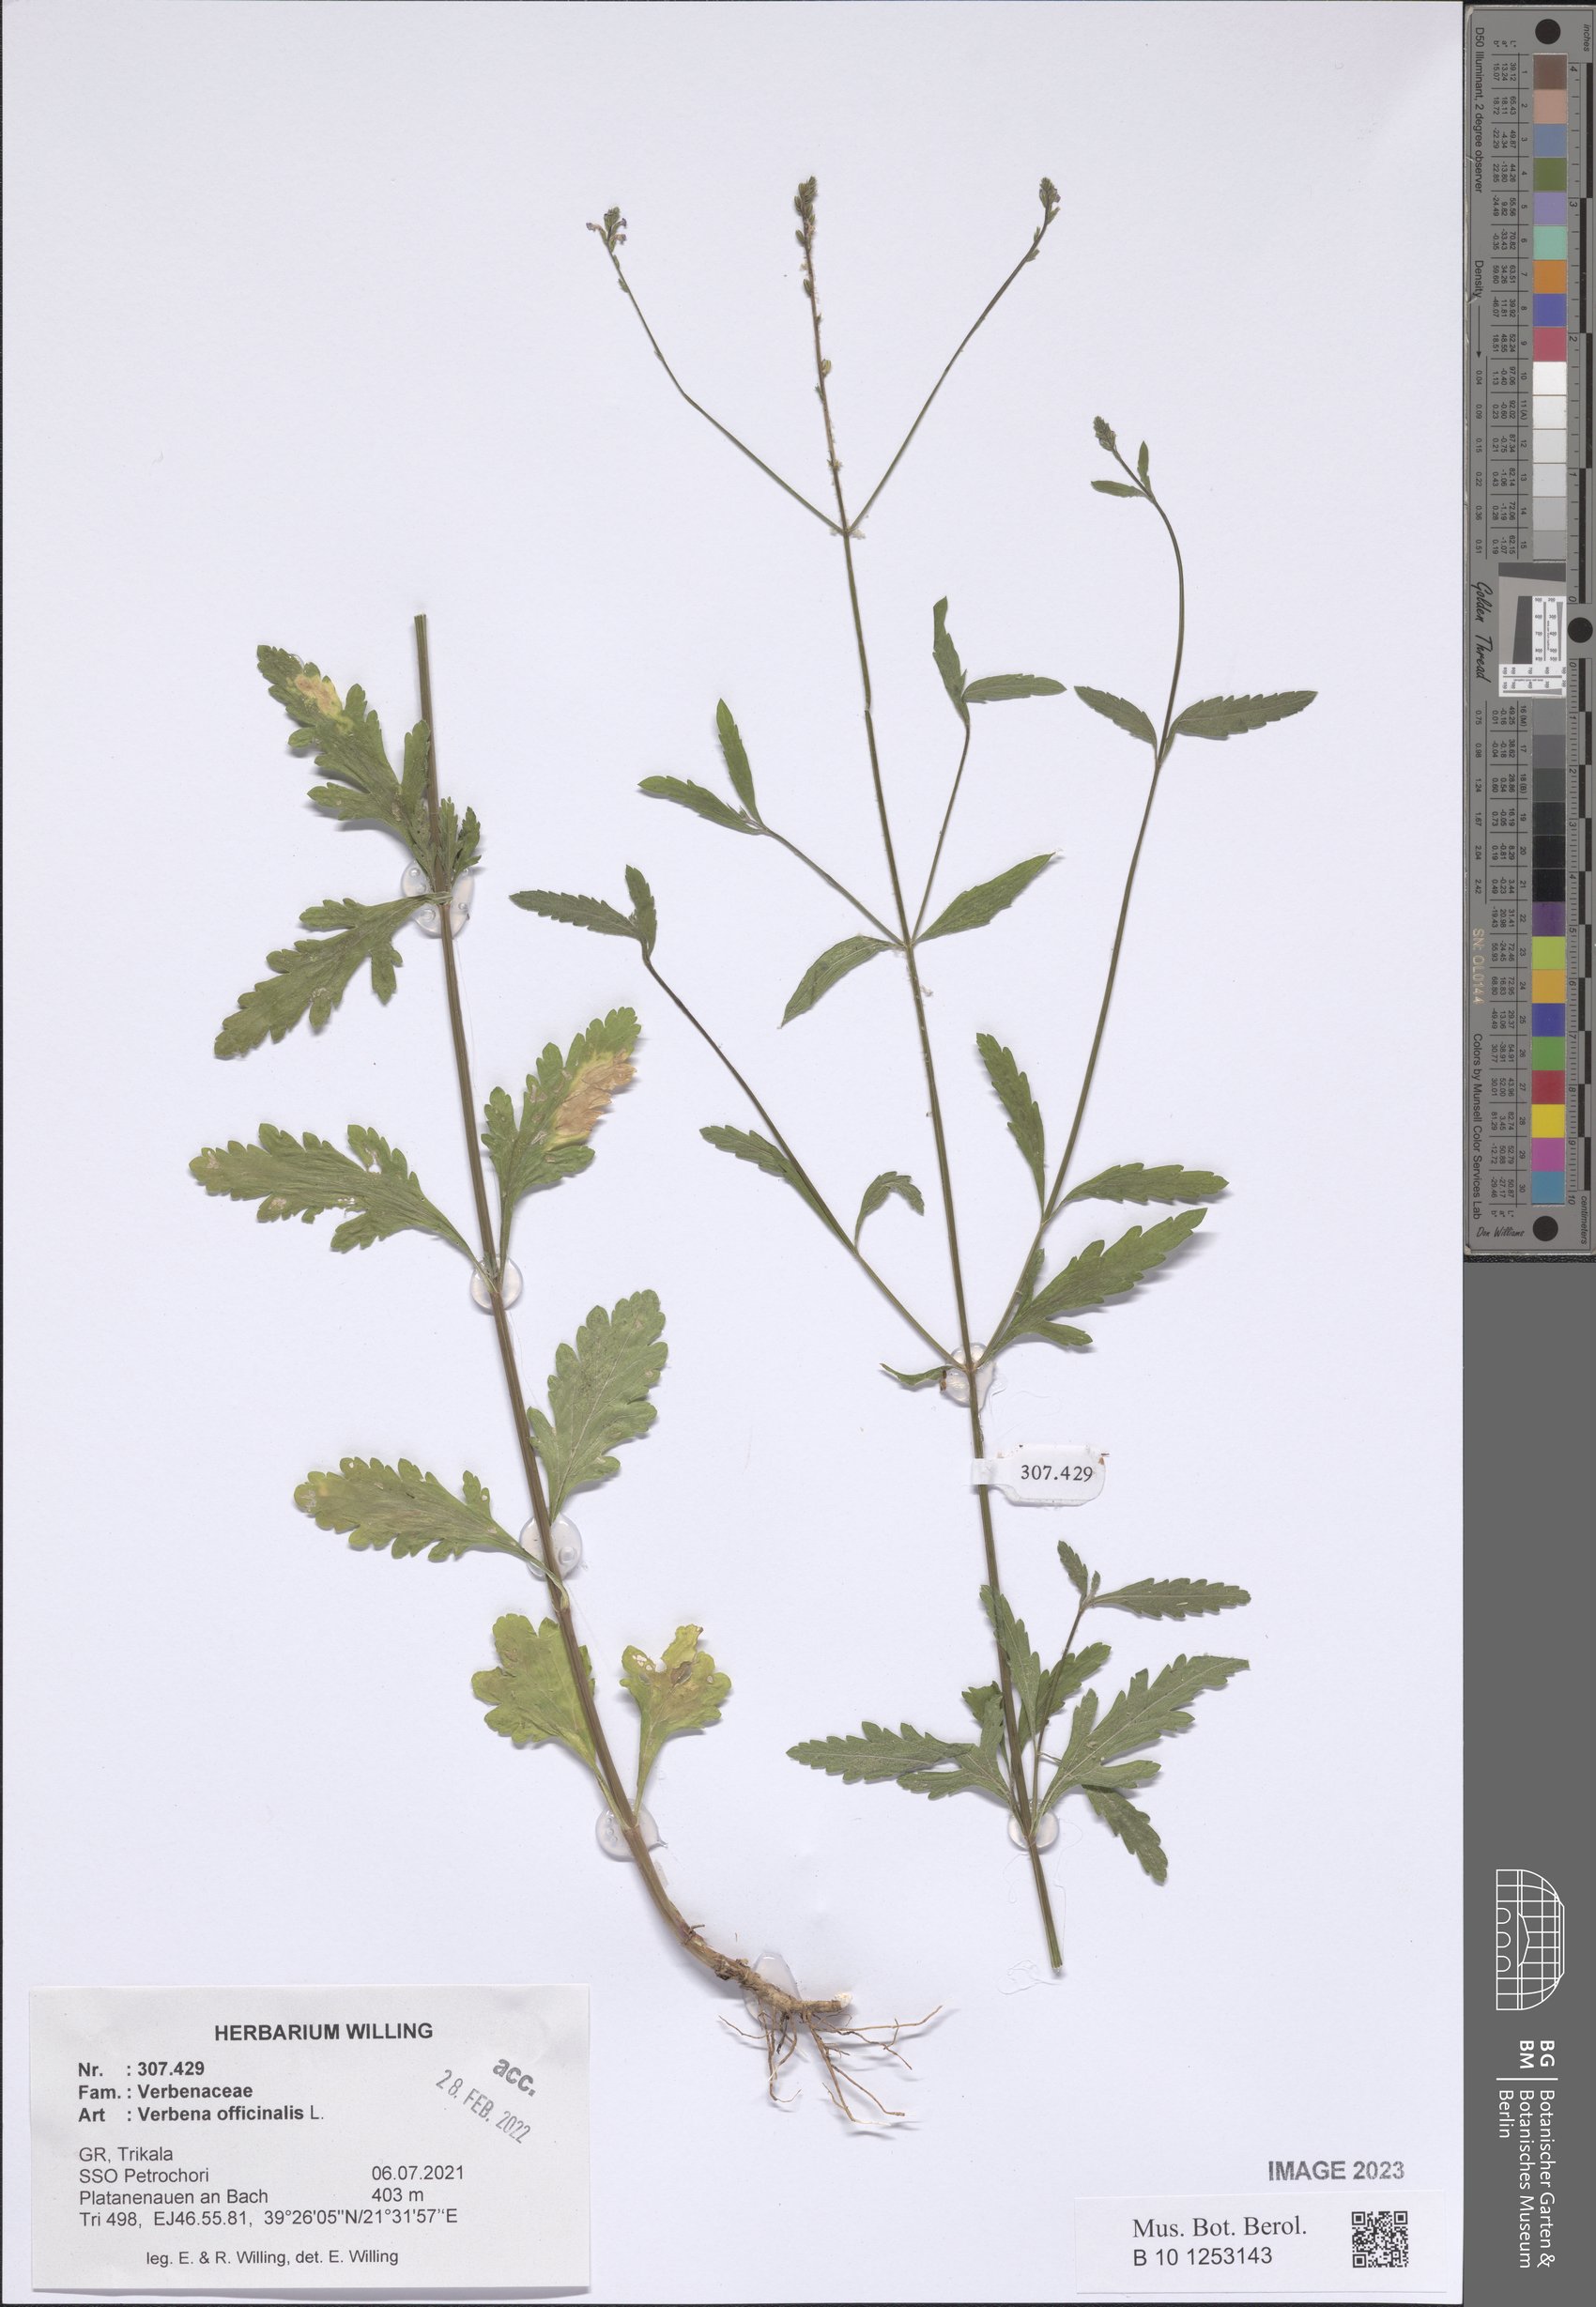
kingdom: Plantae
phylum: Tracheophyta
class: Magnoliopsida
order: Lamiales
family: Verbenaceae
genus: Verbena
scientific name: Verbena officinalis
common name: Vervain
